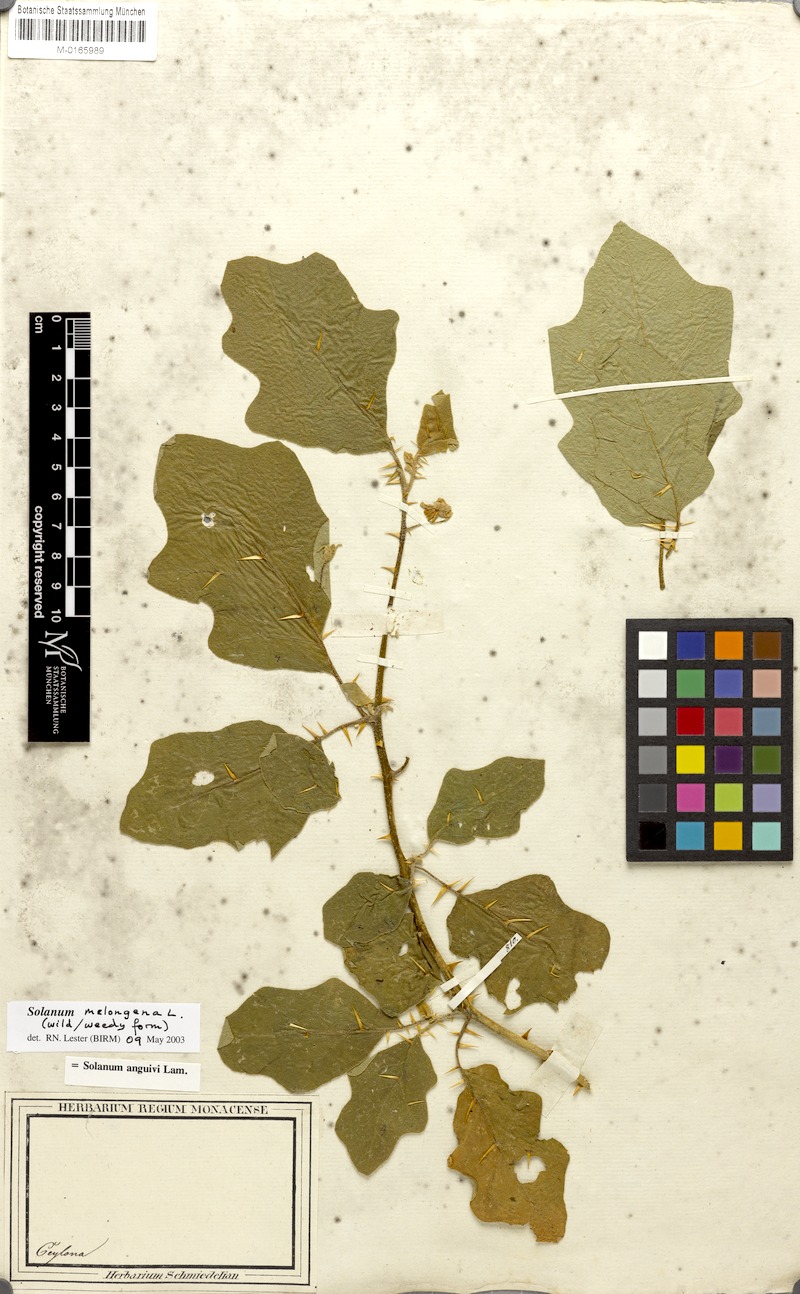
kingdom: Plantae
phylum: Tracheophyta
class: Magnoliopsida
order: Solanales
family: Solanaceae
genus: Solanum
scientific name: Solanum melongena
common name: Eggplant
